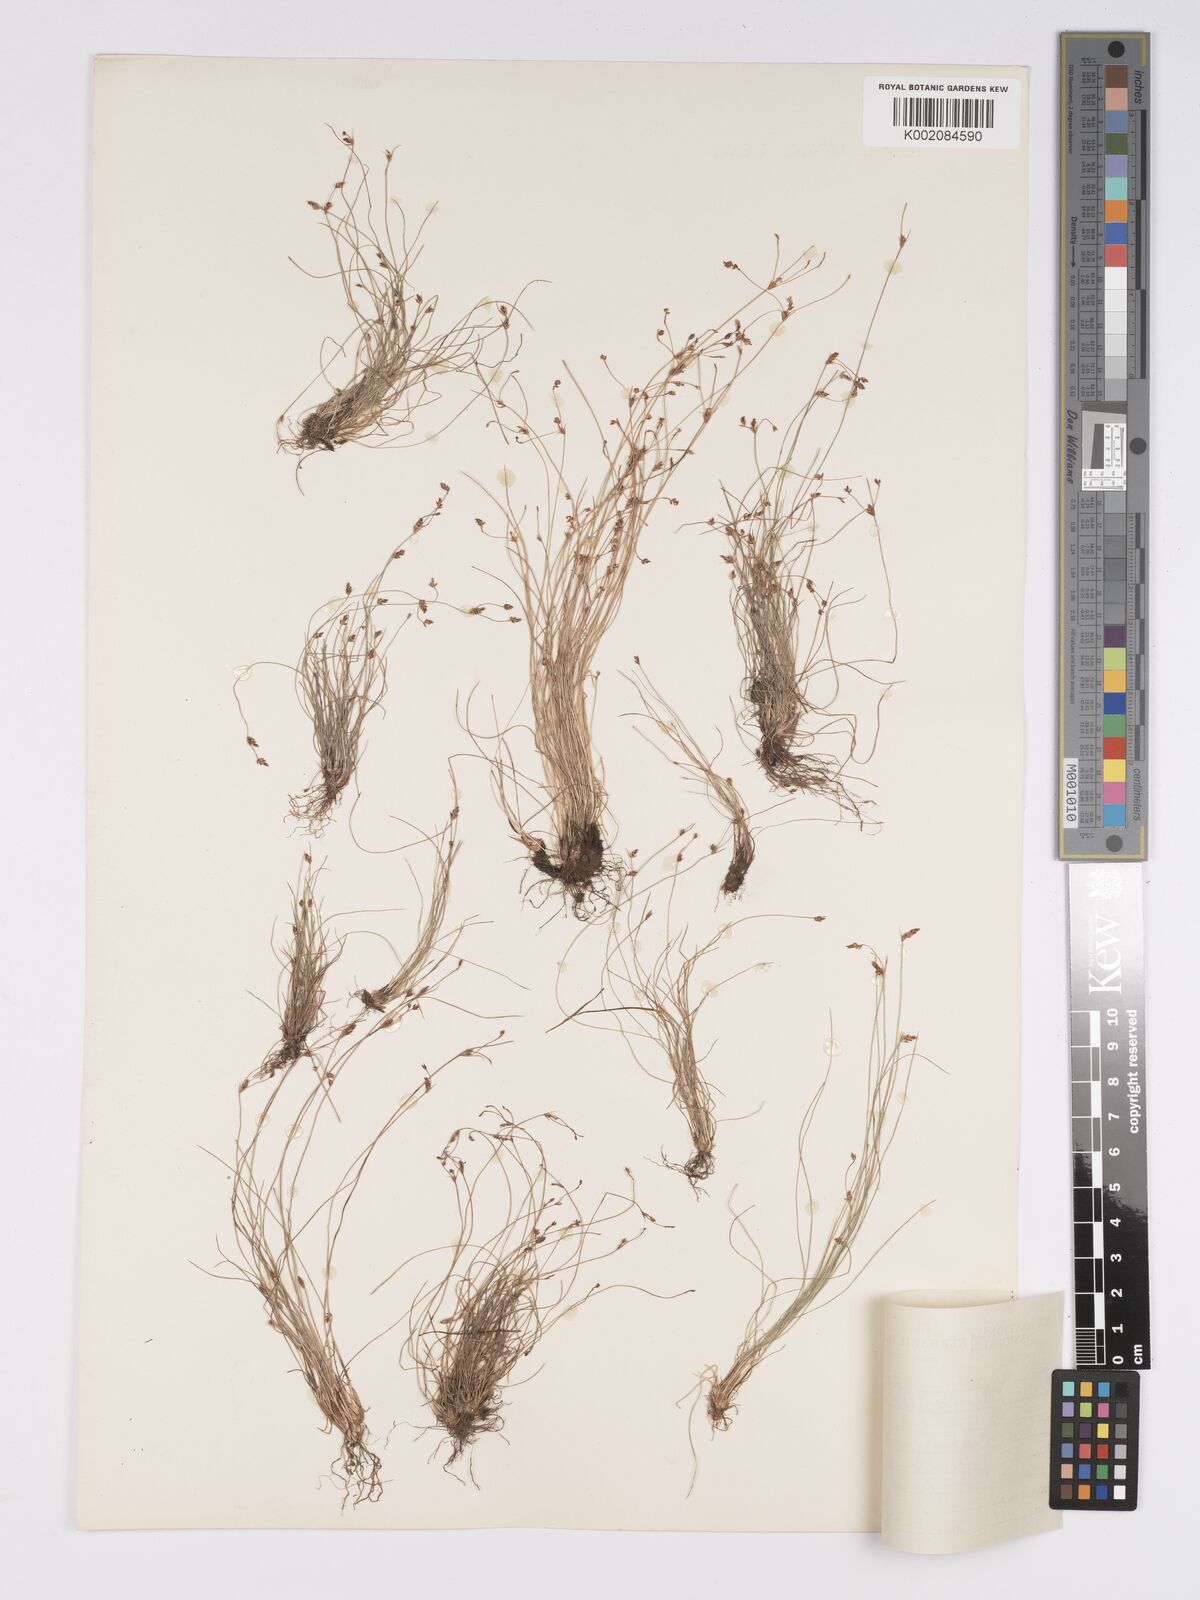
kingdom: Plantae
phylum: Tracheophyta
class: Liliopsida
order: Poales
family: Cyperaceae
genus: Bulbostylis
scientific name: Bulbostylis truncata
